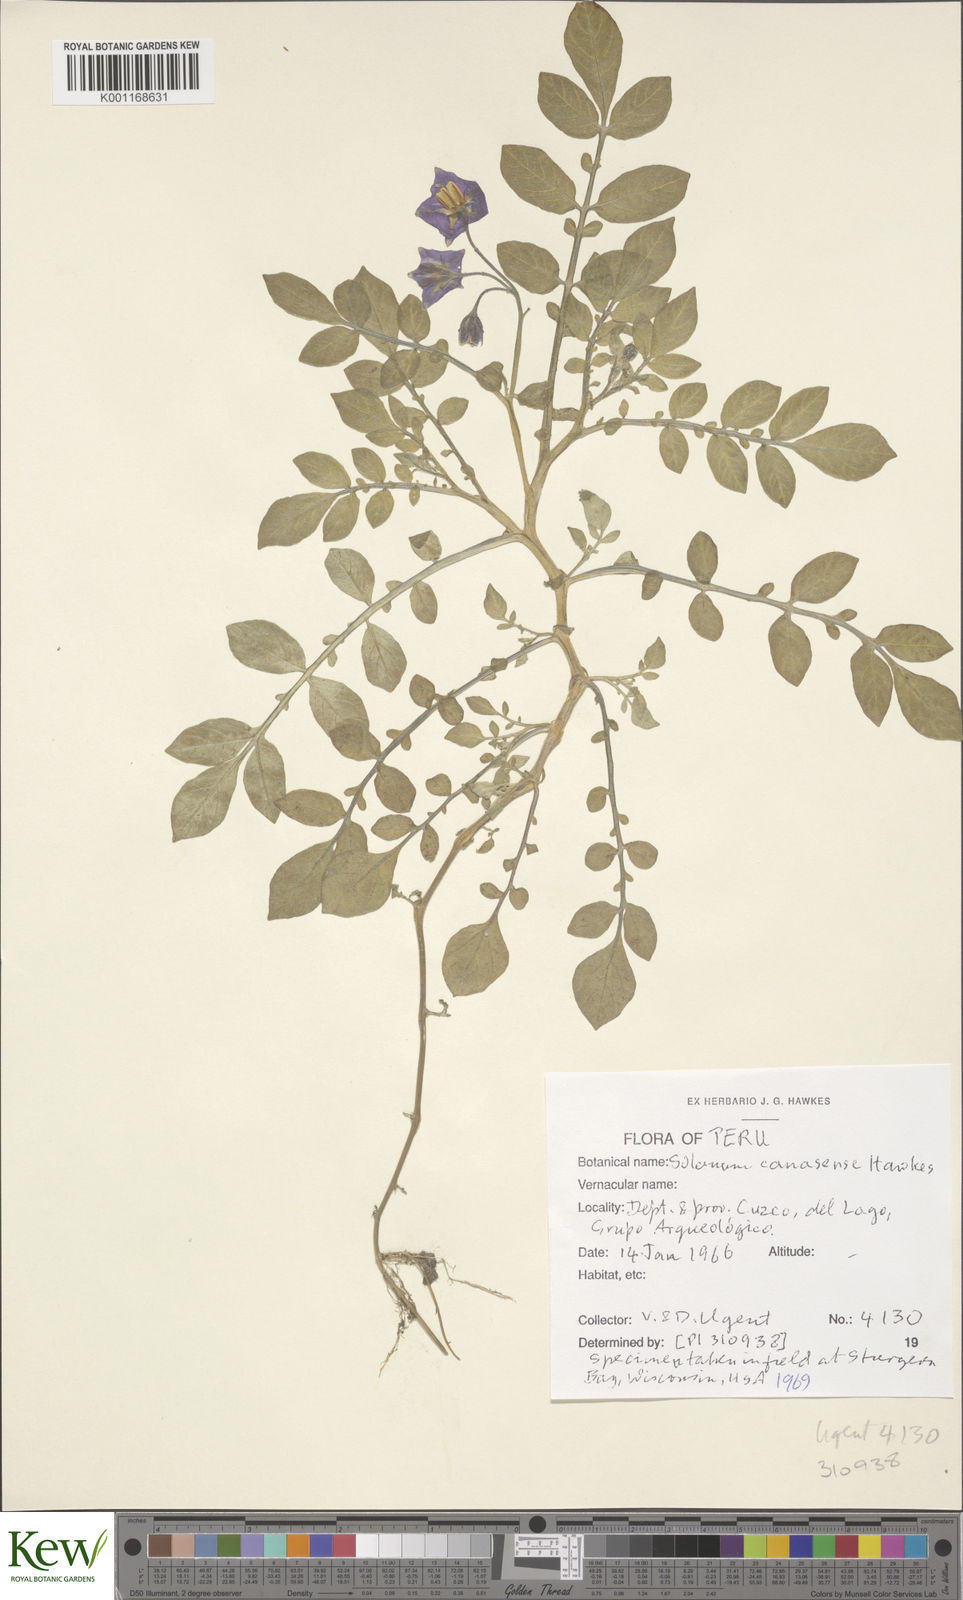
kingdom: Plantae
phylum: Tracheophyta
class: Magnoliopsida
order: Solanales
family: Solanaceae
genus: Solanum
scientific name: Solanum candolleanum
